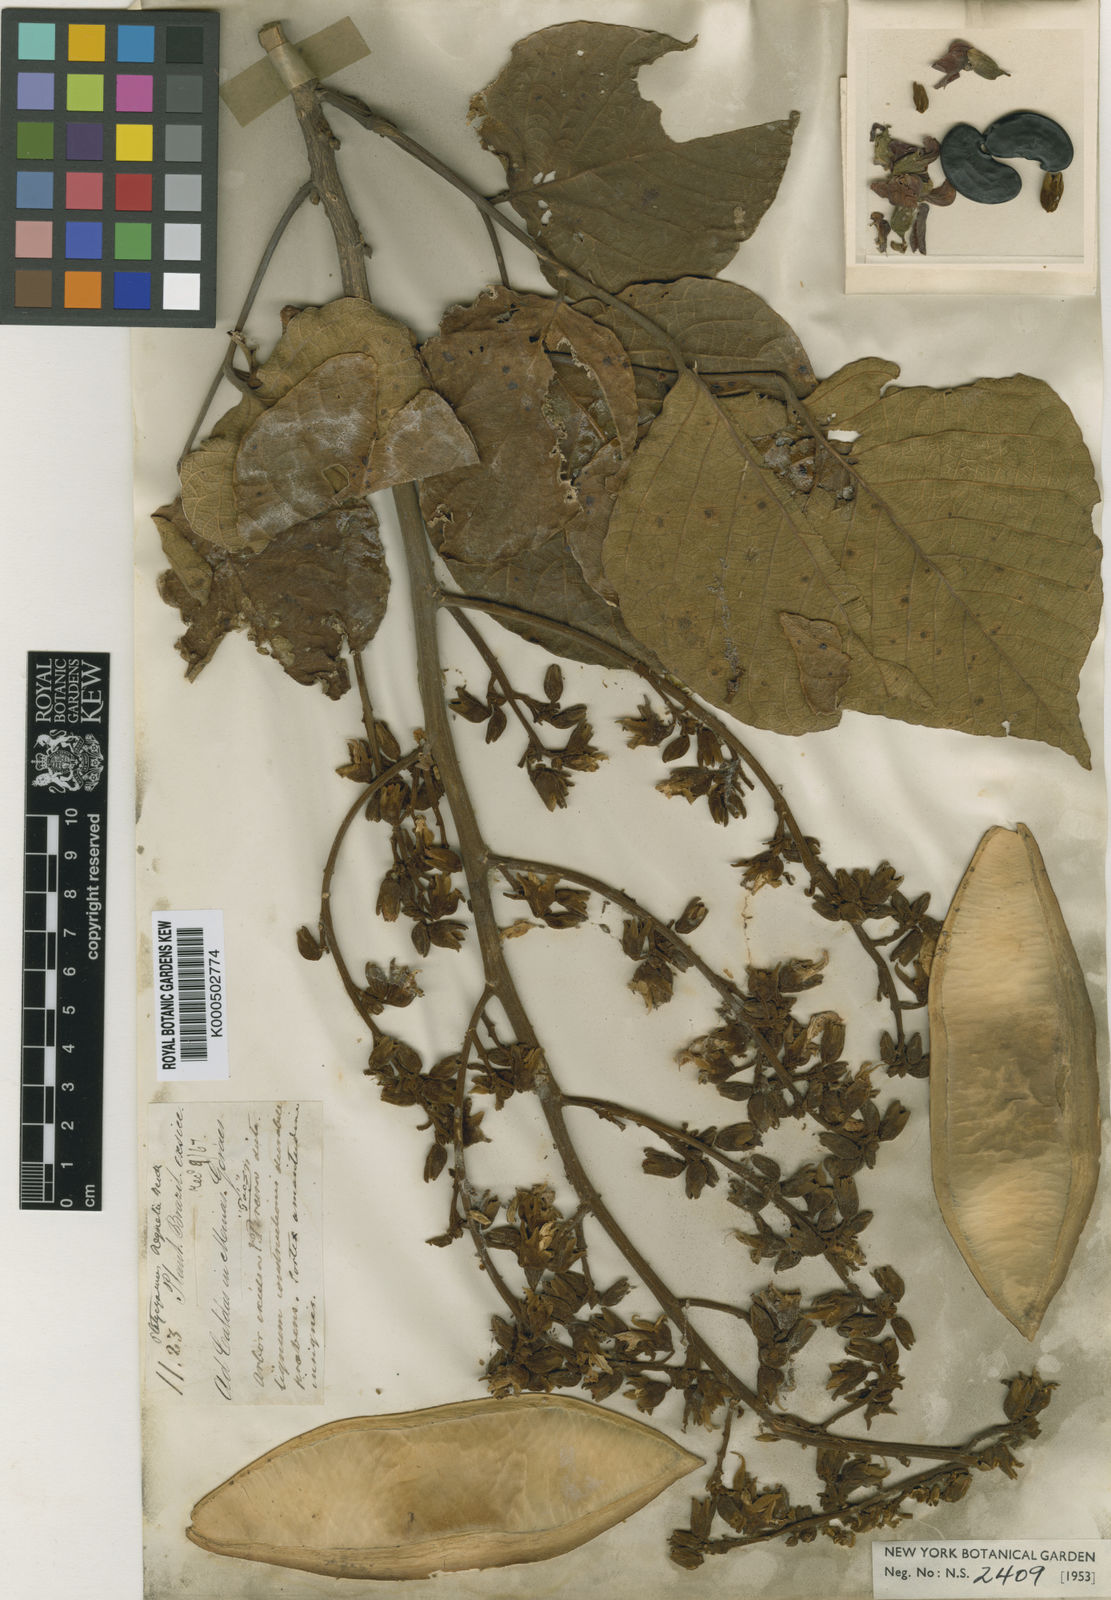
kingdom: Plantae
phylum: Tracheophyta
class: Magnoliopsida
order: Fabales
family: Fabaceae
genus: Platycyamus
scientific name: Platycyamus regnellii
